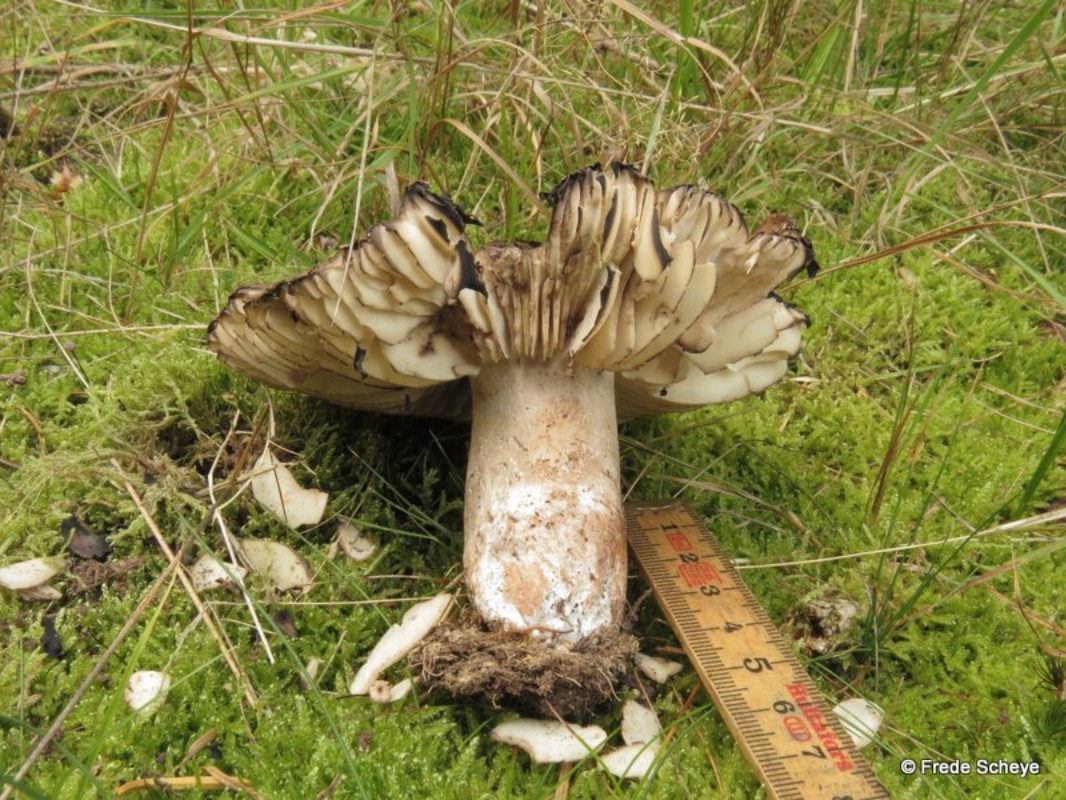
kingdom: Fungi
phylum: Basidiomycota
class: Agaricomycetes
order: Russulales
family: Russulaceae
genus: Russula
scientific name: Russula adusta
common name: sværtende skørhat
